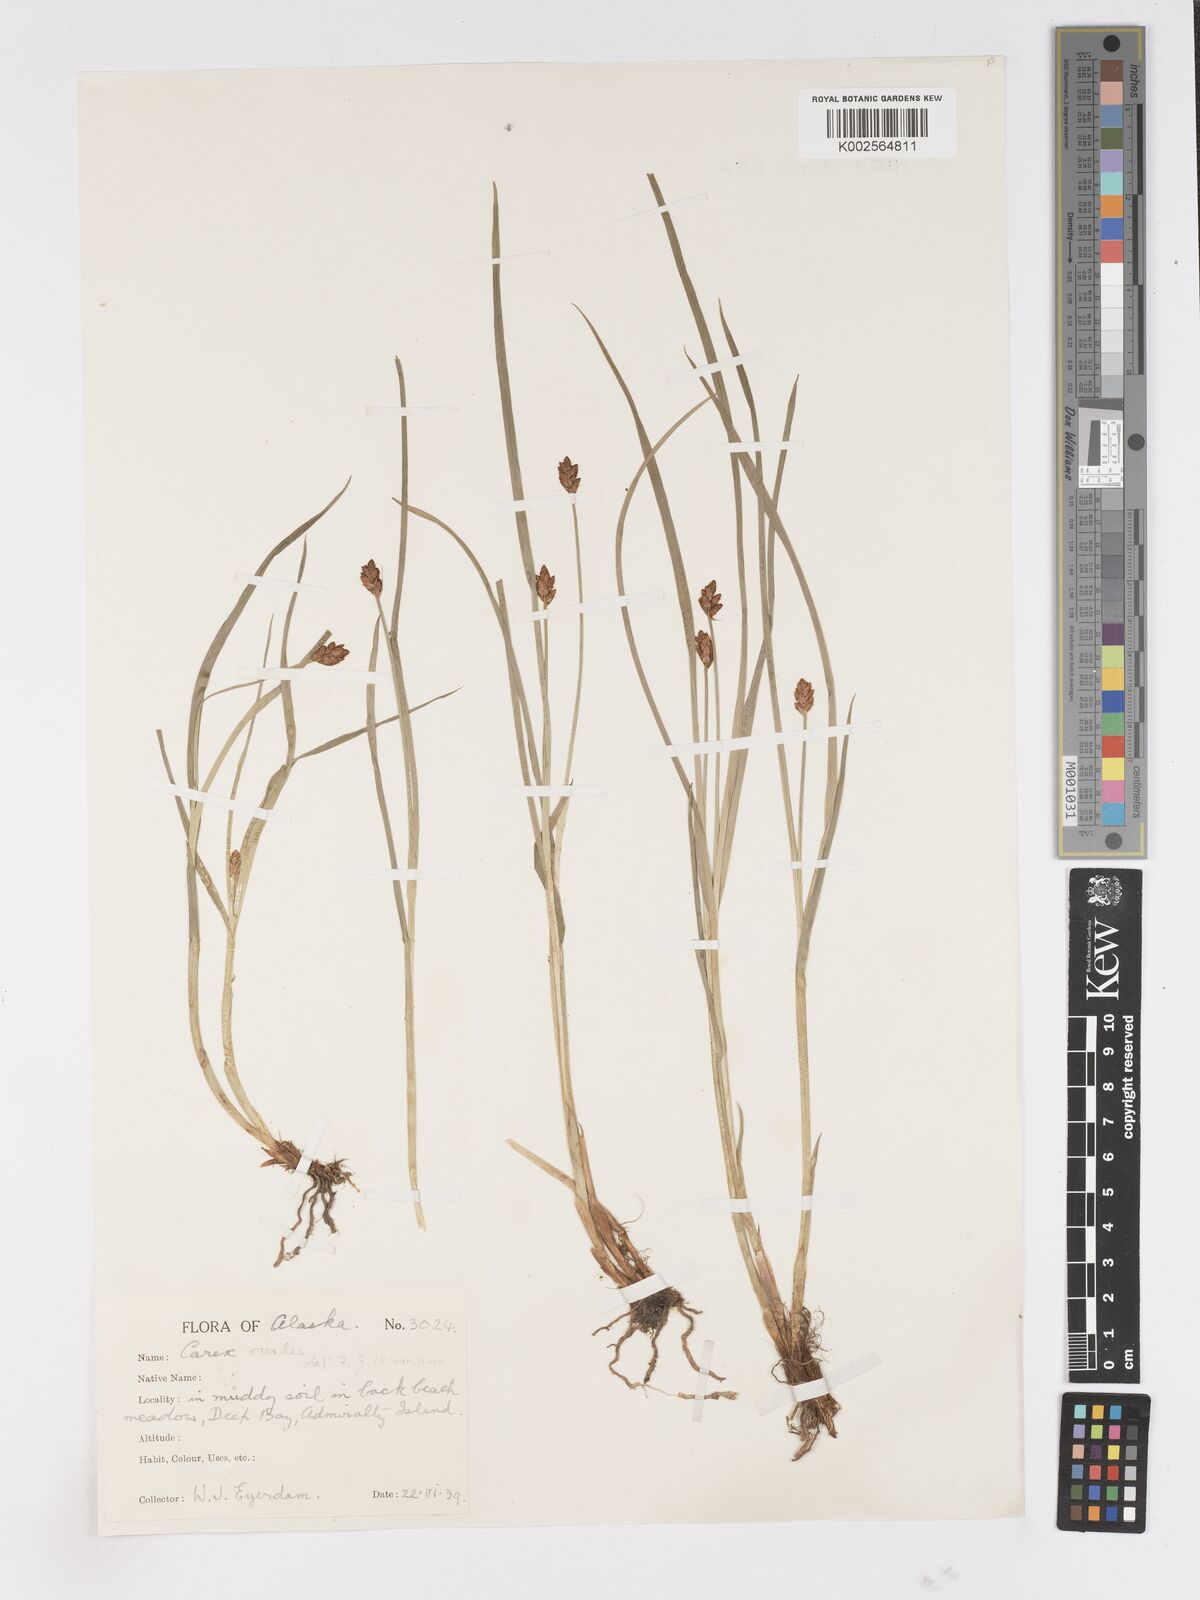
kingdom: Plantae
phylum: Tracheophyta
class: Liliopsida
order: Poales
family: Cyperaceae
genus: Carex
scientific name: Carex
